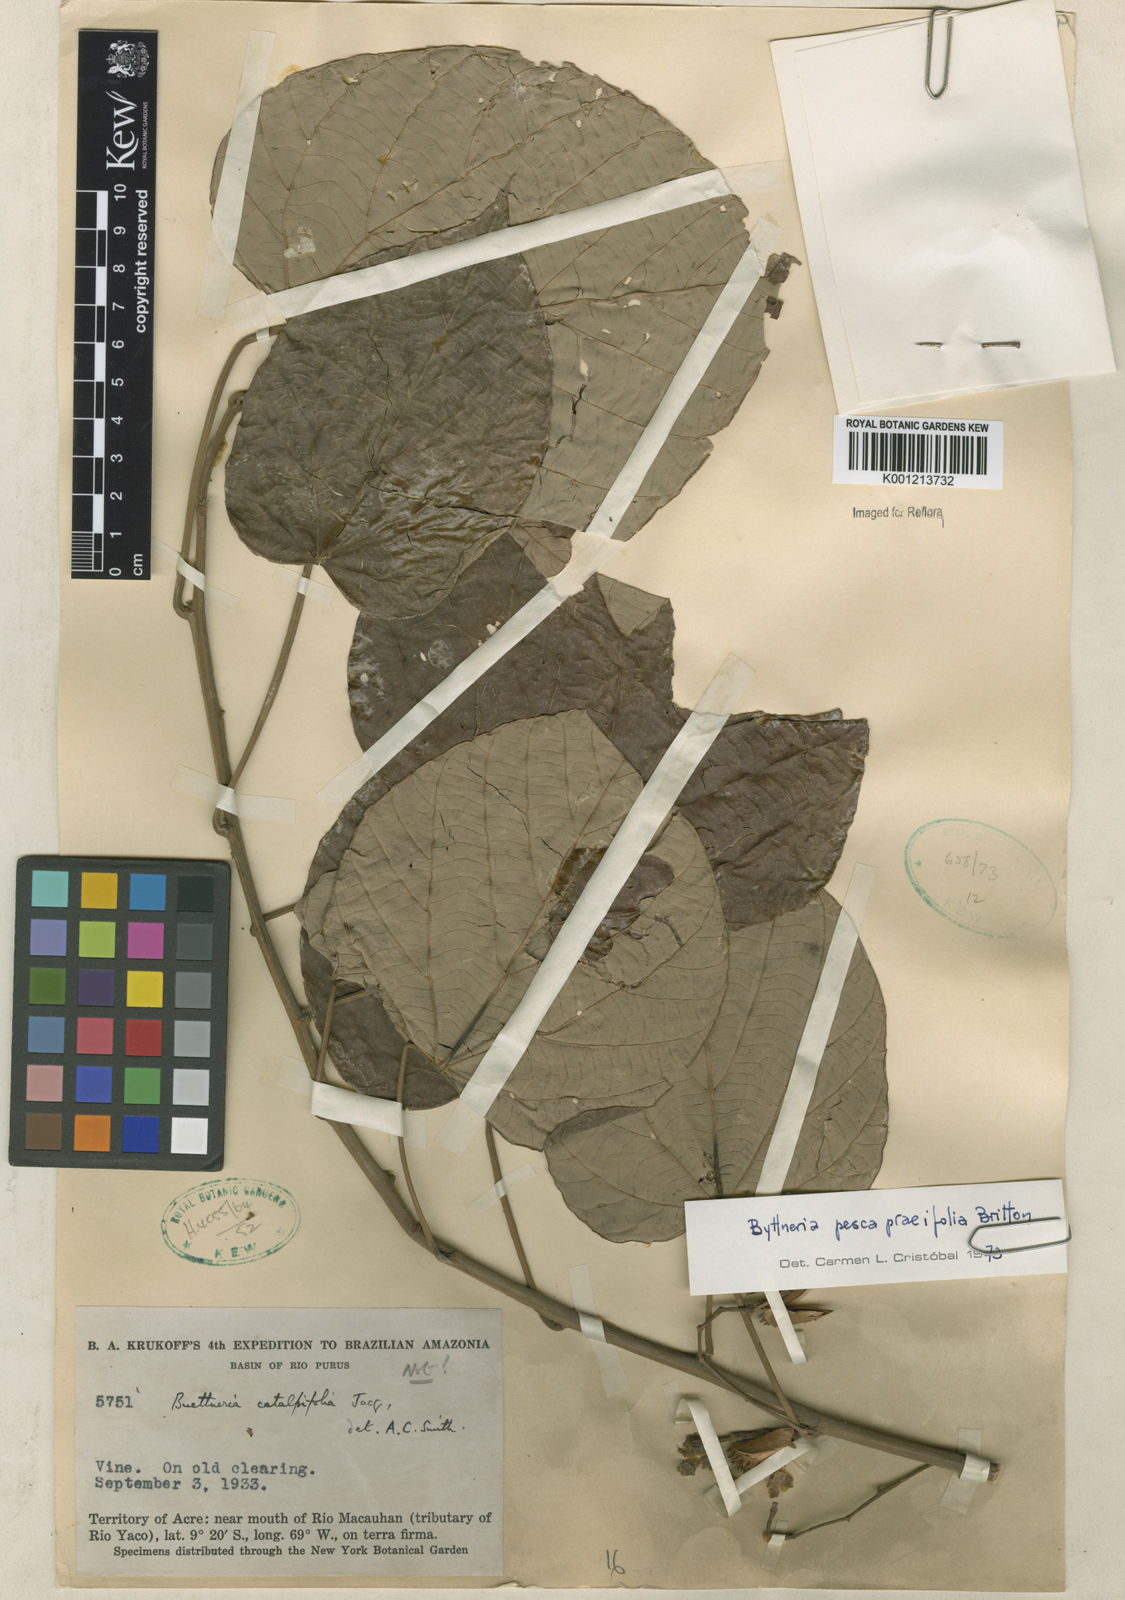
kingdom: Plantae
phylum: Tracheophyta
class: Magnoliopsida
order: Malvales
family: Malvaceae
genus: Byttneria
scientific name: Byttneria pescapraeifolia
